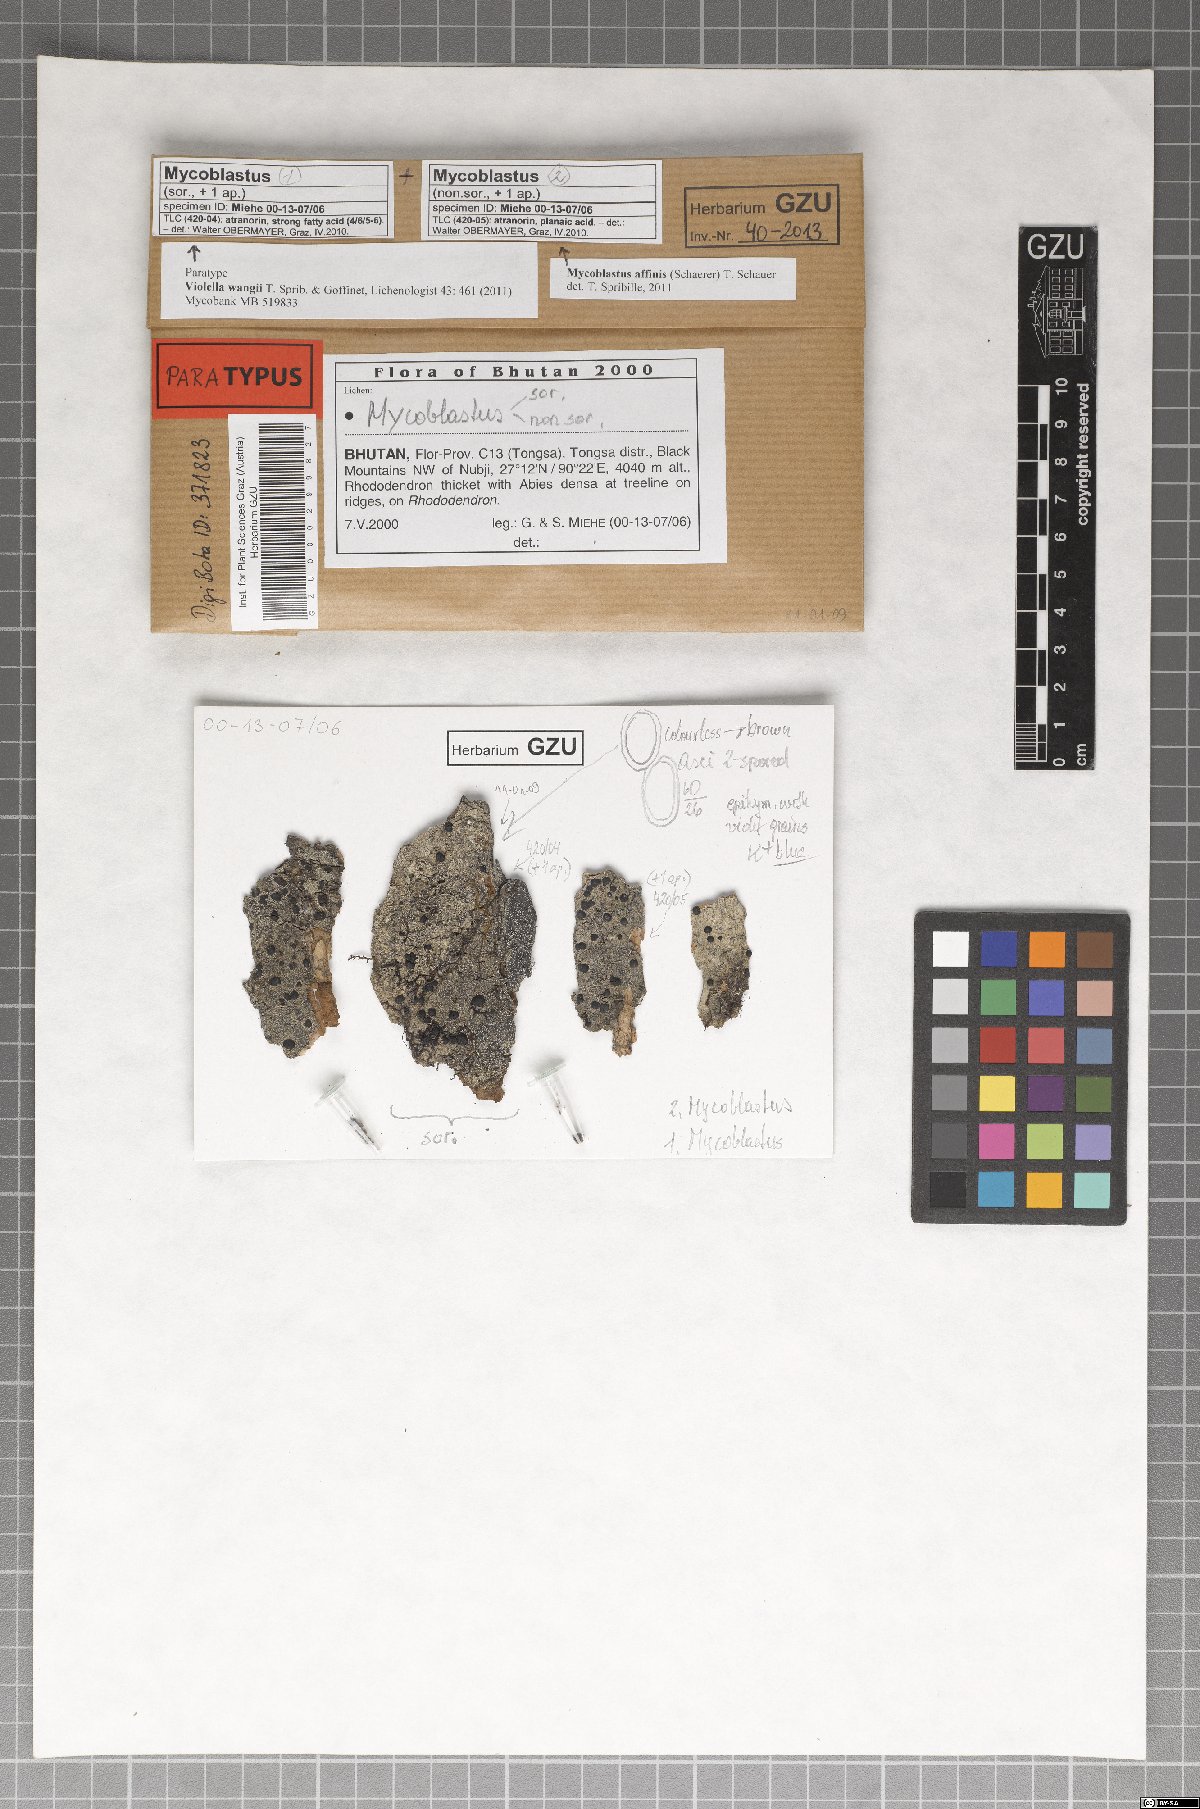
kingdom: Fungi
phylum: Ascomycota
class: Lecanoromycetes
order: Lecanorales
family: Tephromelataceae
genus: Violella
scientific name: Violella wangii
